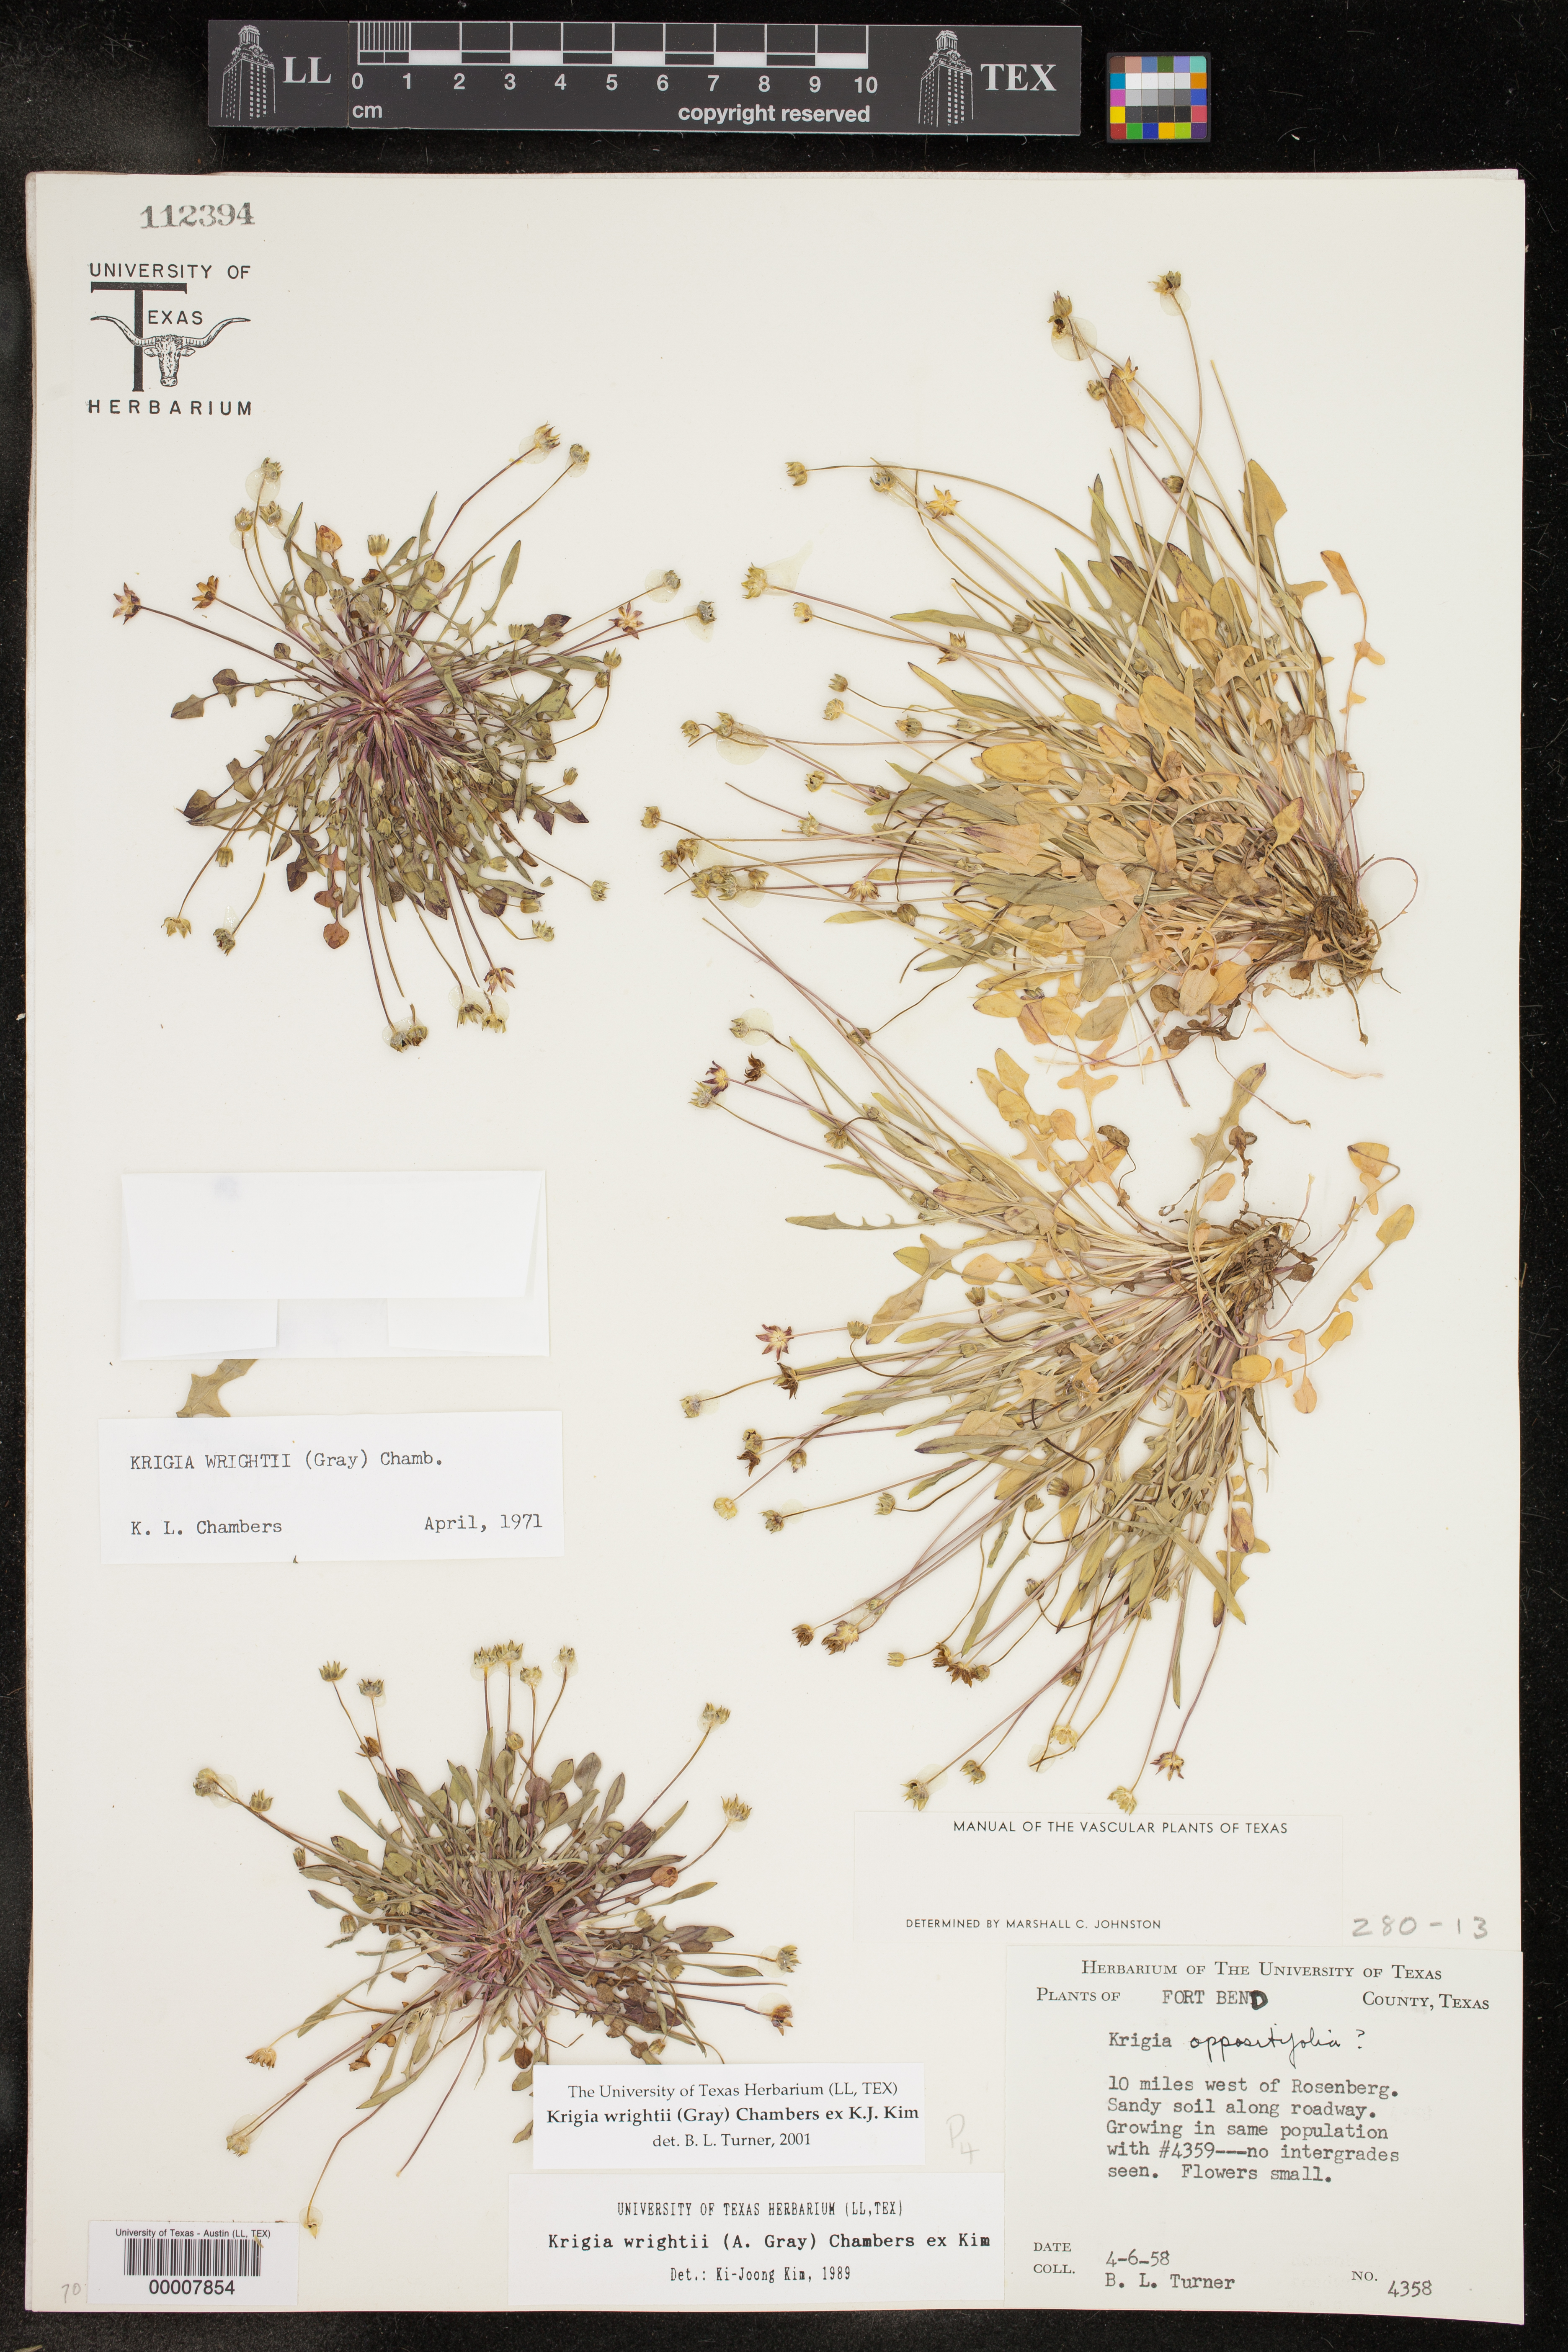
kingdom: Plantae
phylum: Tracheophyta
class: Magnoliopsida
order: Asterales
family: Asteraceae
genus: Krigia
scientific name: Krigia wrightii
